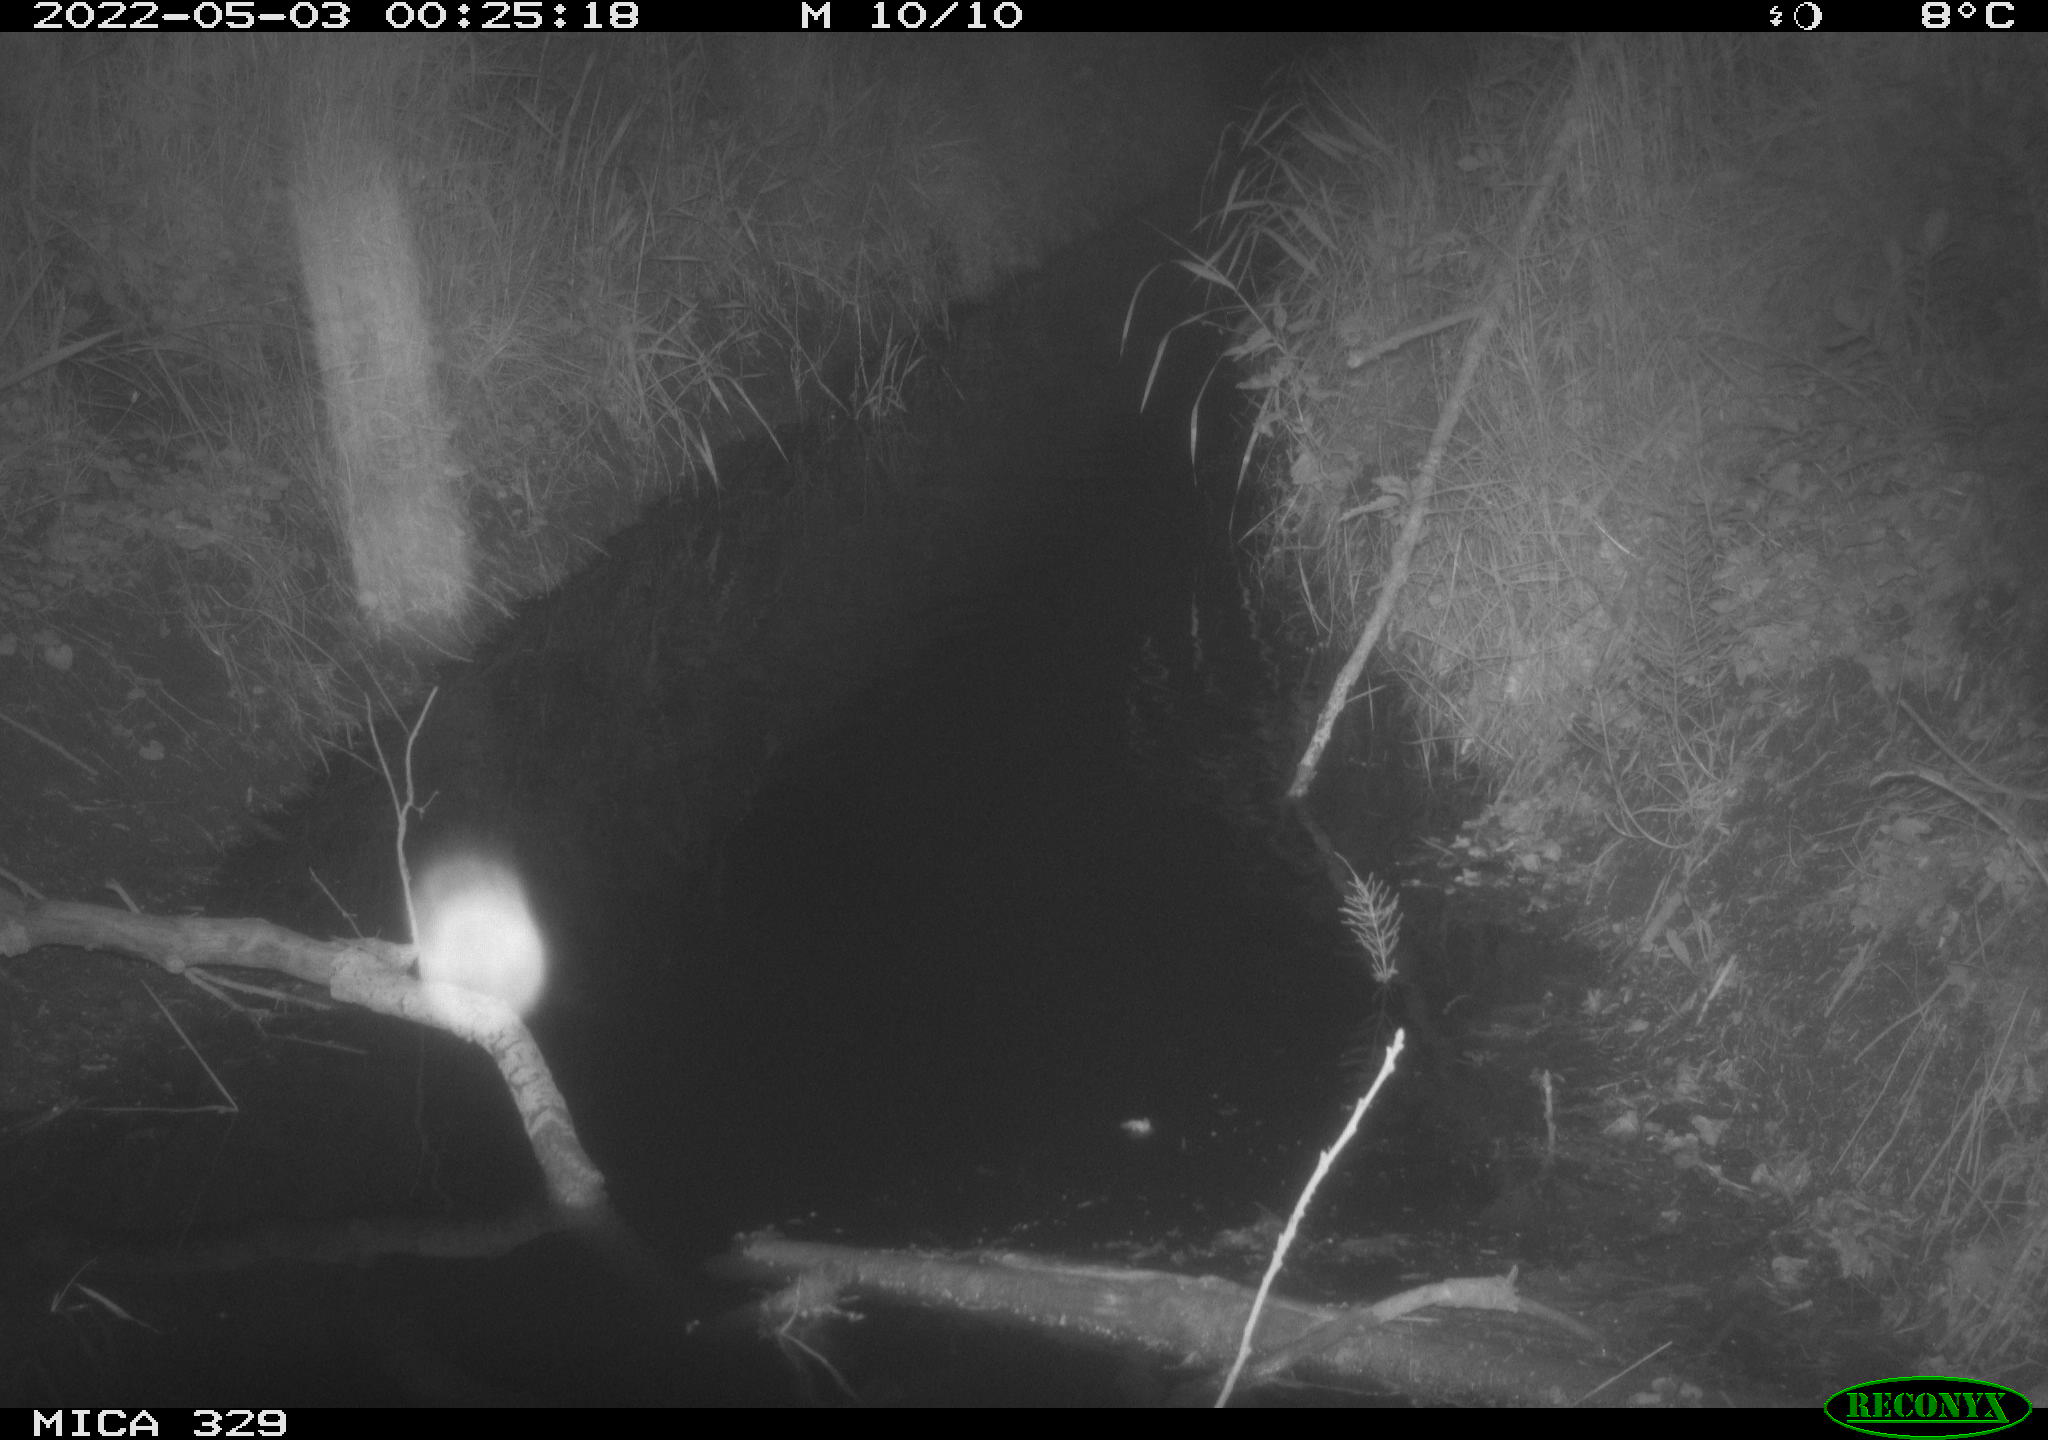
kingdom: Animalia
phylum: Chordata
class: Mammalia
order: Rodentia
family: Muridae
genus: Rattus
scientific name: Rattus norvegicus
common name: Brown rat
